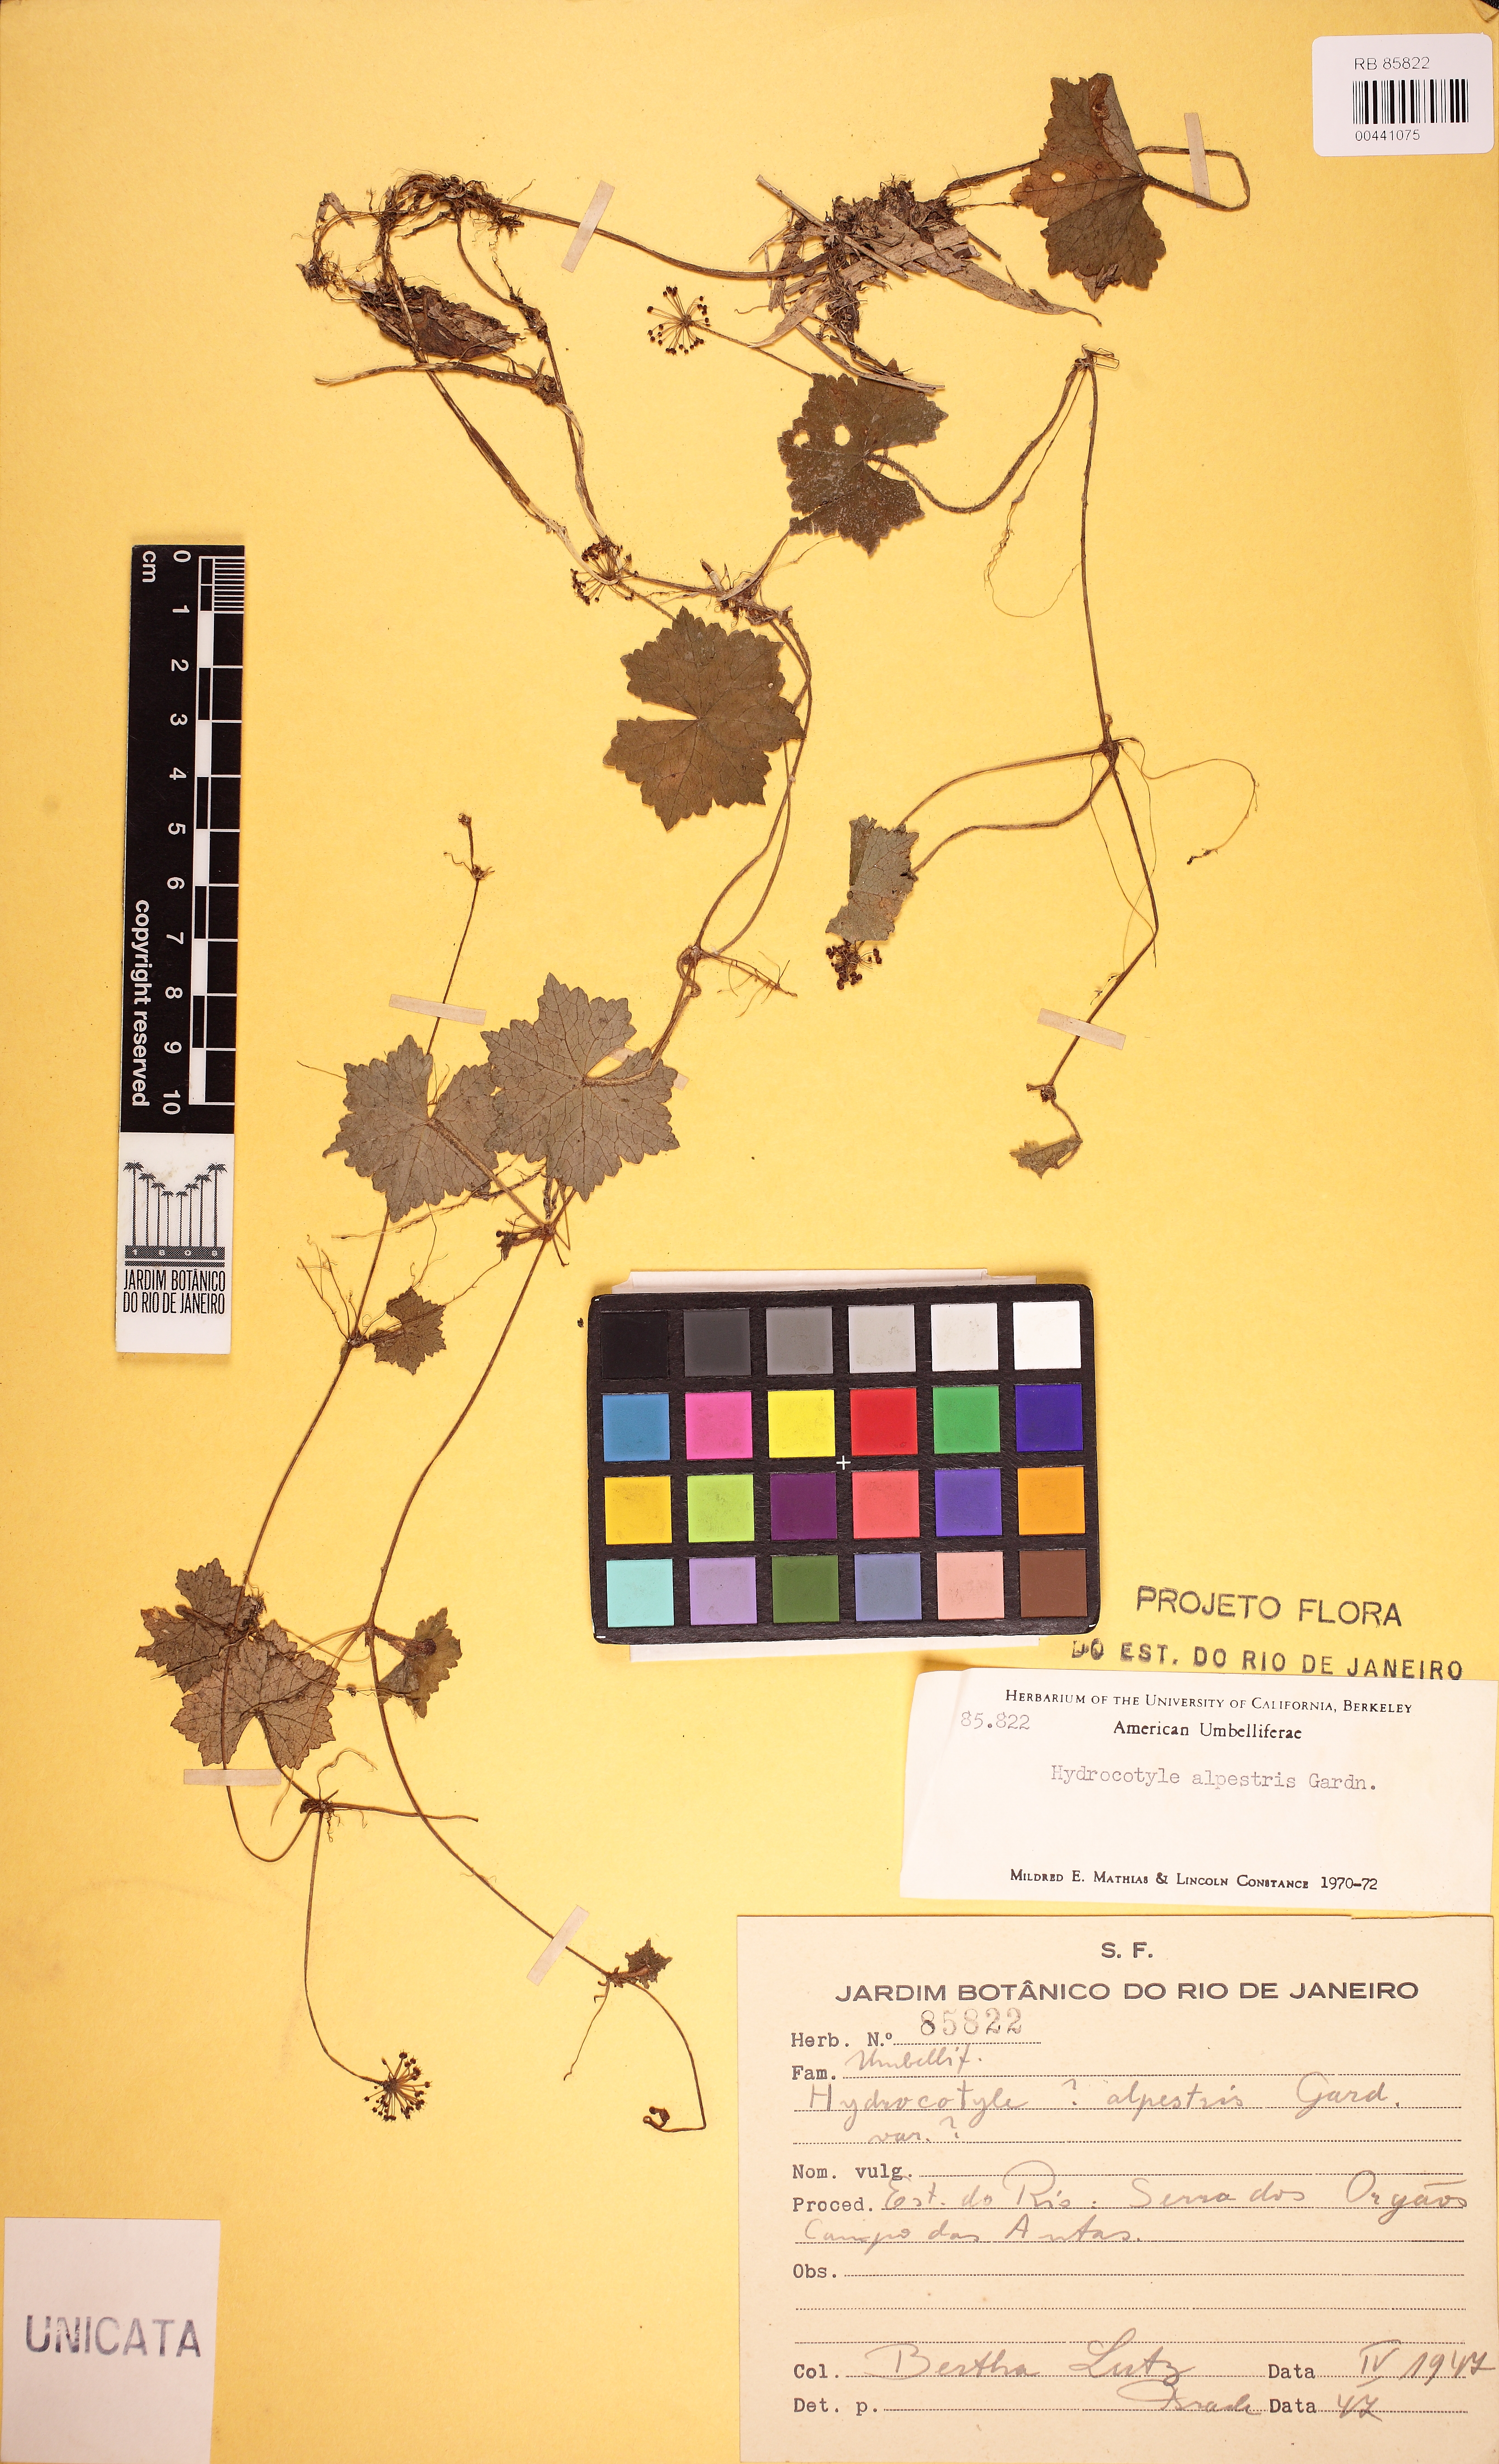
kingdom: Plantae
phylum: Tracheophyta
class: Magnoliopsida
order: Apiales
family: Araliaceae
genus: Hydrocotyle
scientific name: Hydrocotyle alpestris
